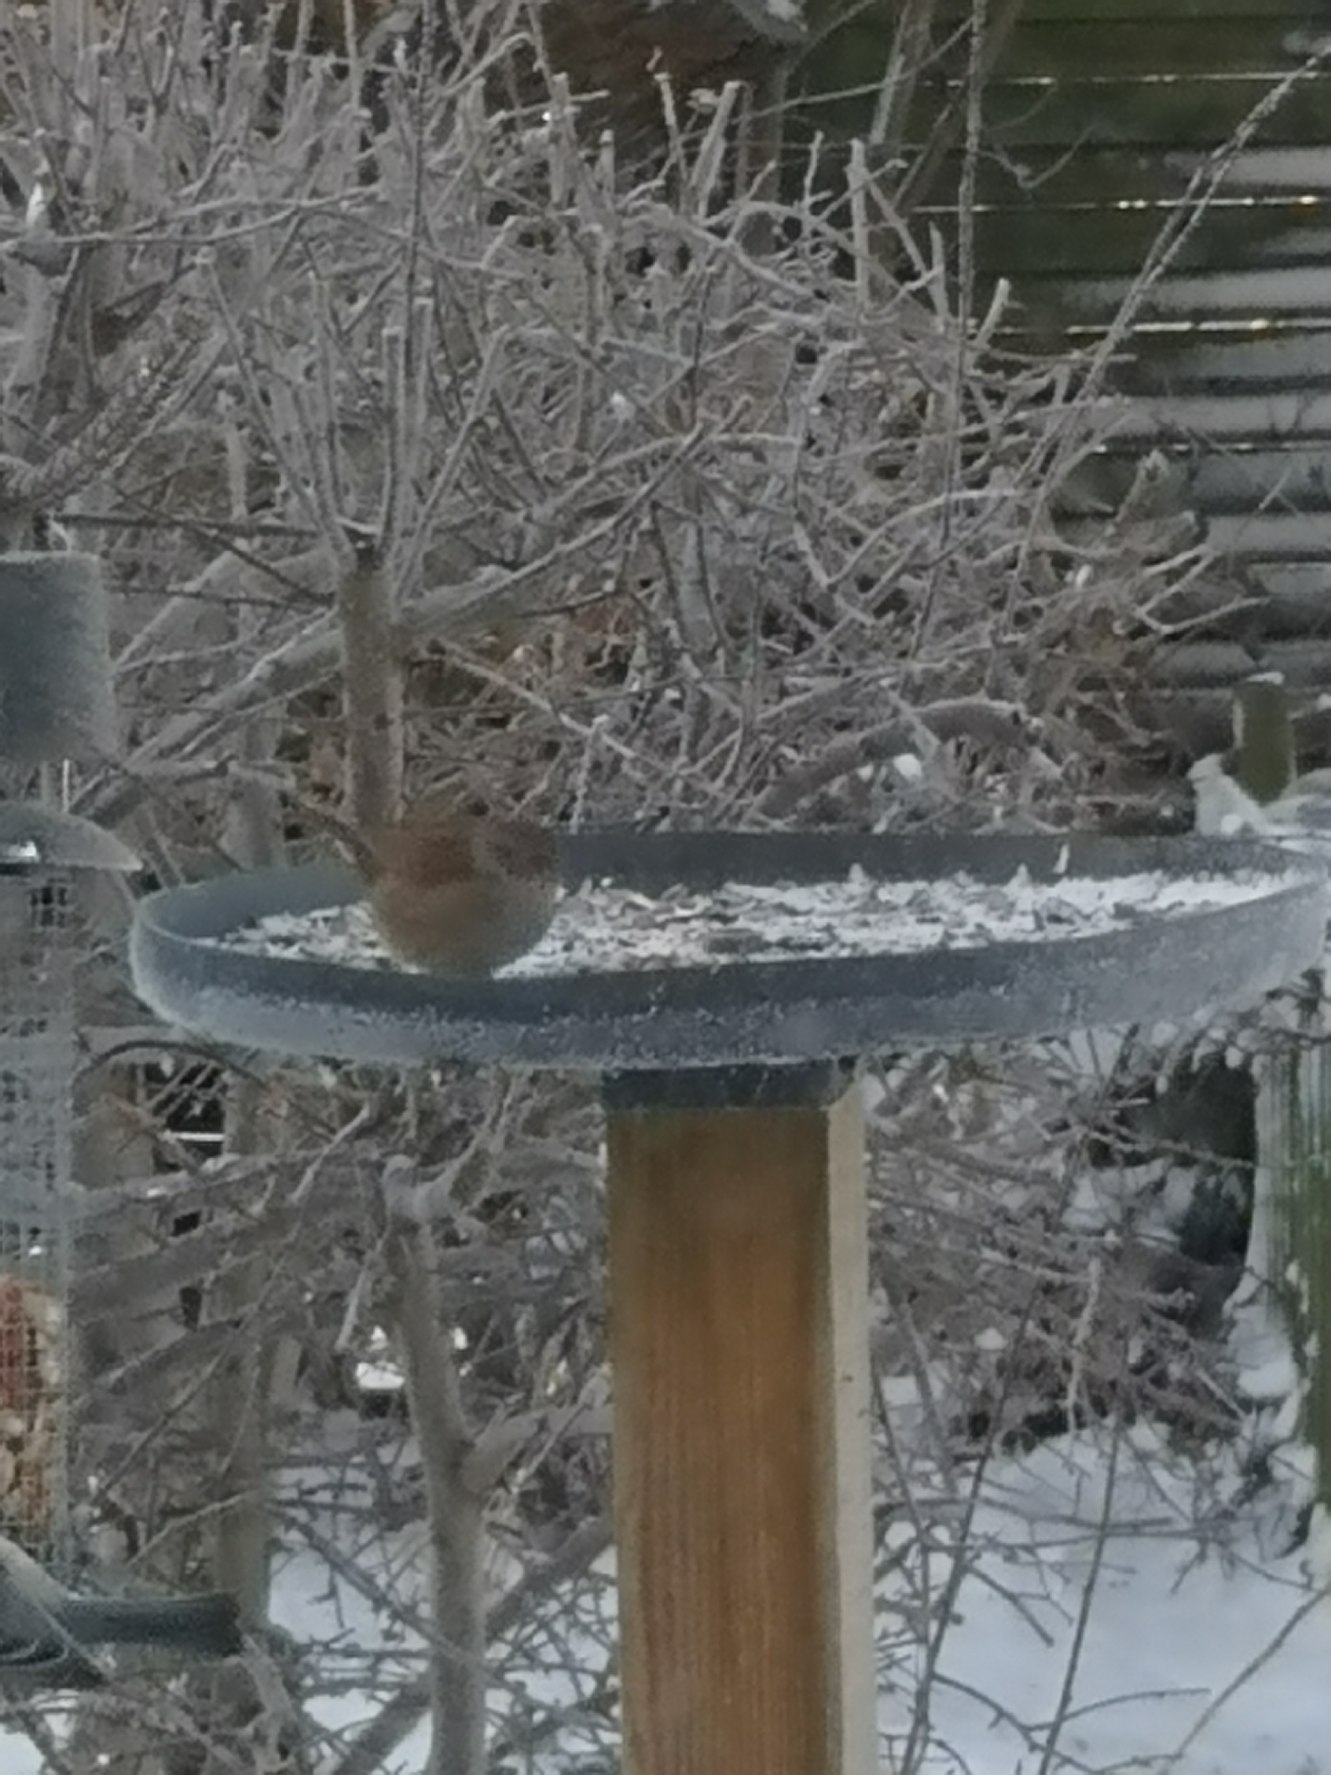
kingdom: Animalia
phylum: Chordata
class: Aves
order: Passeriformes
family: Prunellidae
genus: Prunella
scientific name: Prunella modularis
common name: Jernspurv
